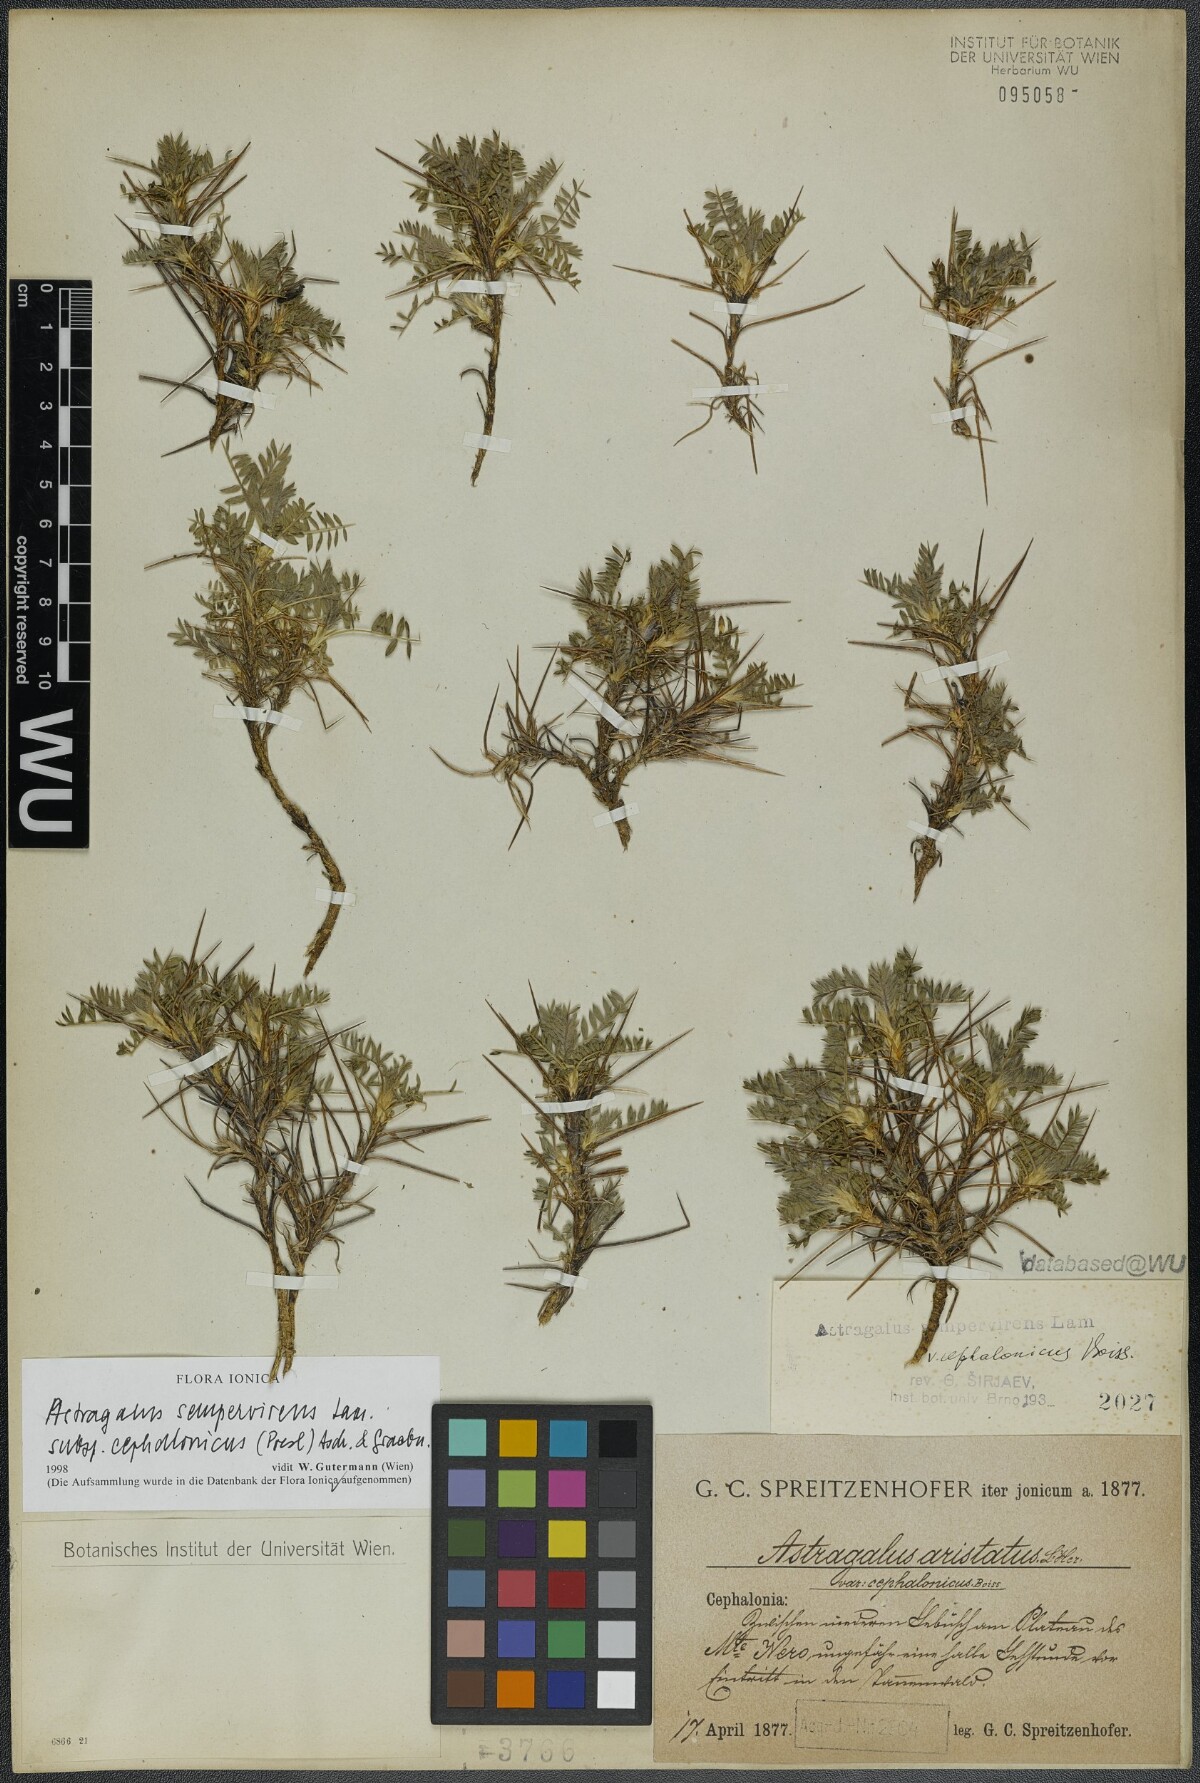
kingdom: Plantae
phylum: Tracheophyta
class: Magnoliopsida
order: Fabales
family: Fabaceae
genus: Astragalus
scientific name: Astragalus sempervirens
